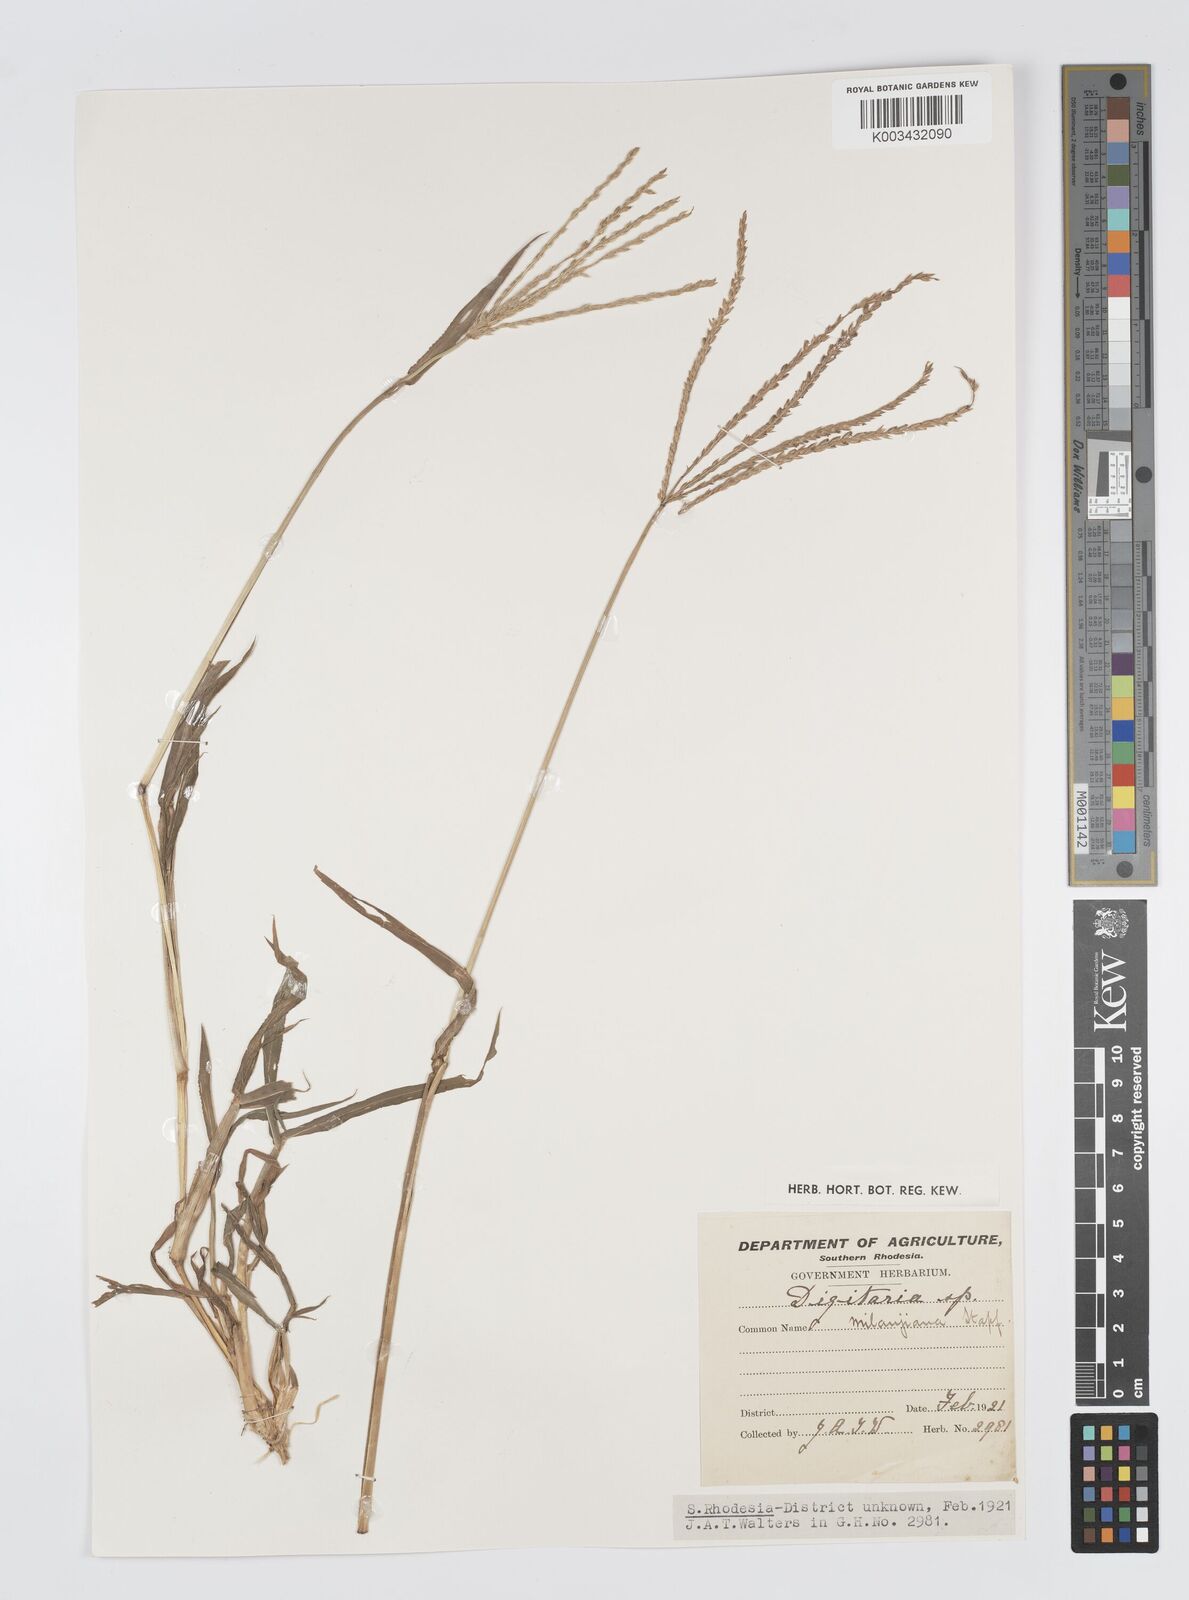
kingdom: Plantae
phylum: Tracheophyta
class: Liliopsida
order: Poales
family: Poaceae
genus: Digitaria
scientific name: Digitaria milanjiana
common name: Madagascar crabgrass
